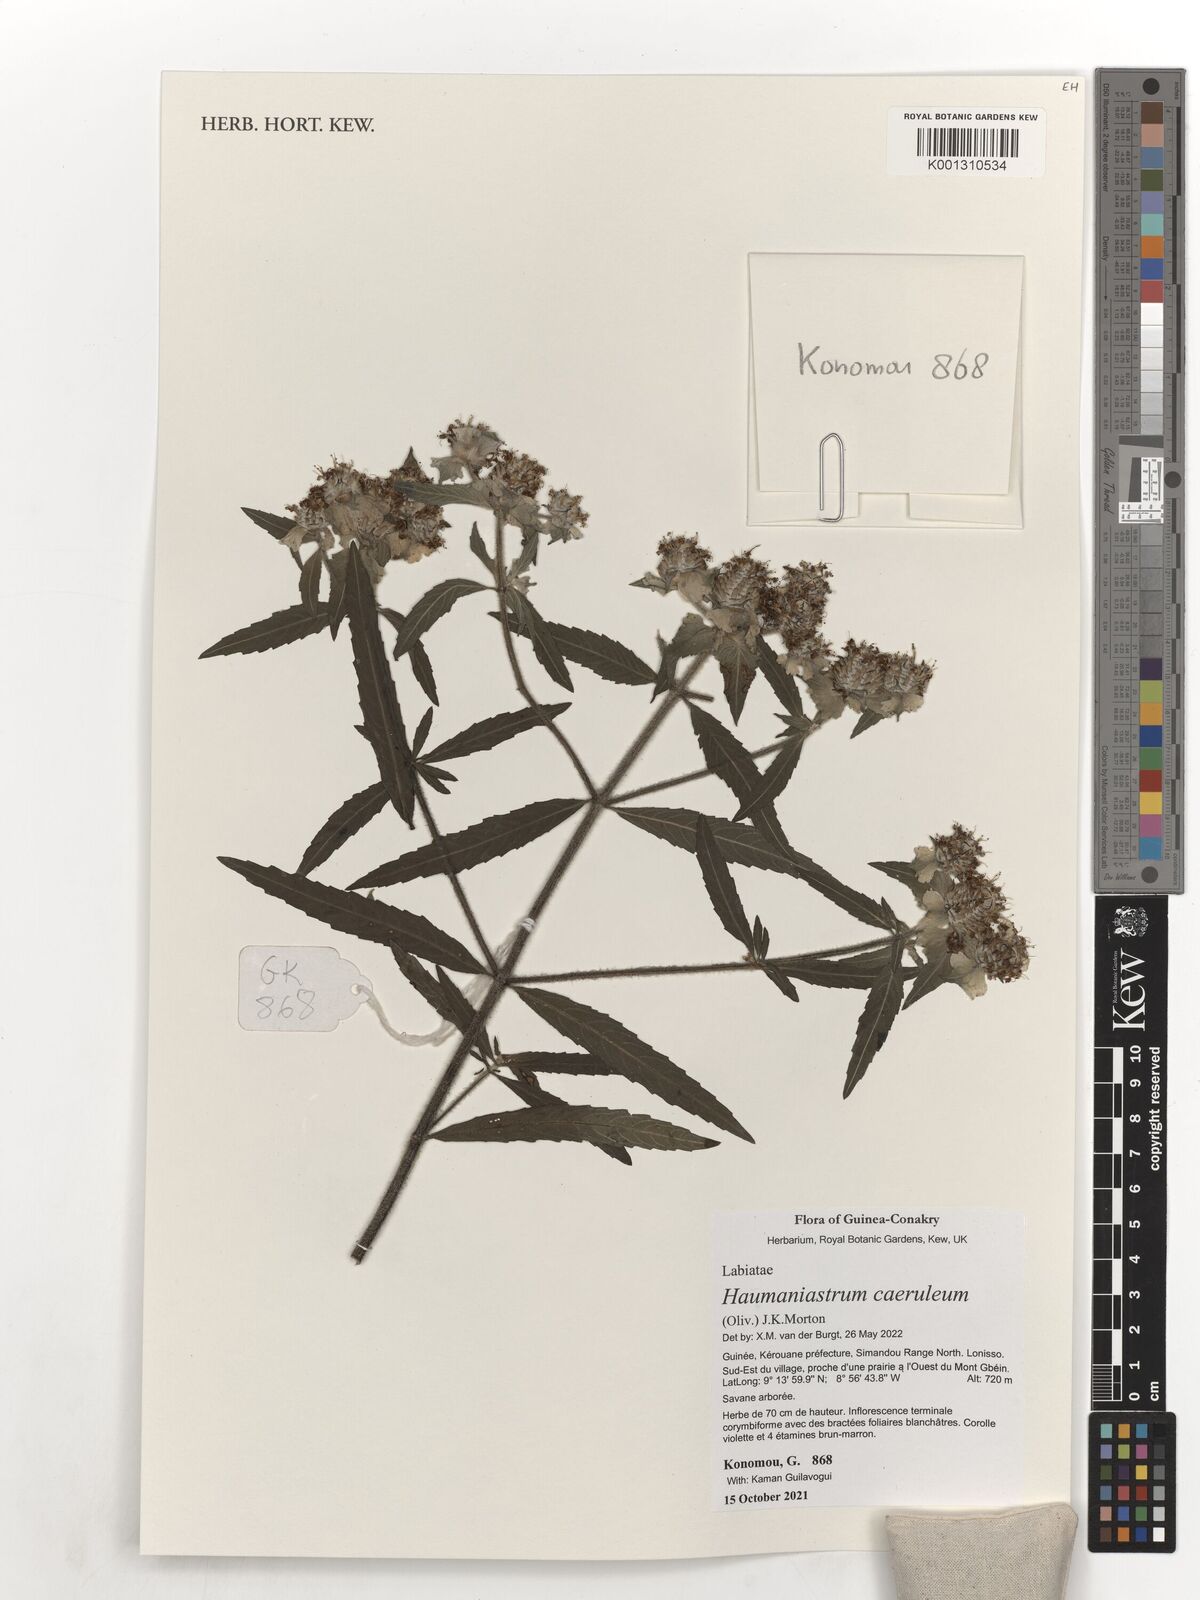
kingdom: Plantae
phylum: Tracheophyta
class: Magnoliopsida
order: Lamiales
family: Lamiaceae
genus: Haumaniastrum
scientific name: Haumaniastrum caeruleum
